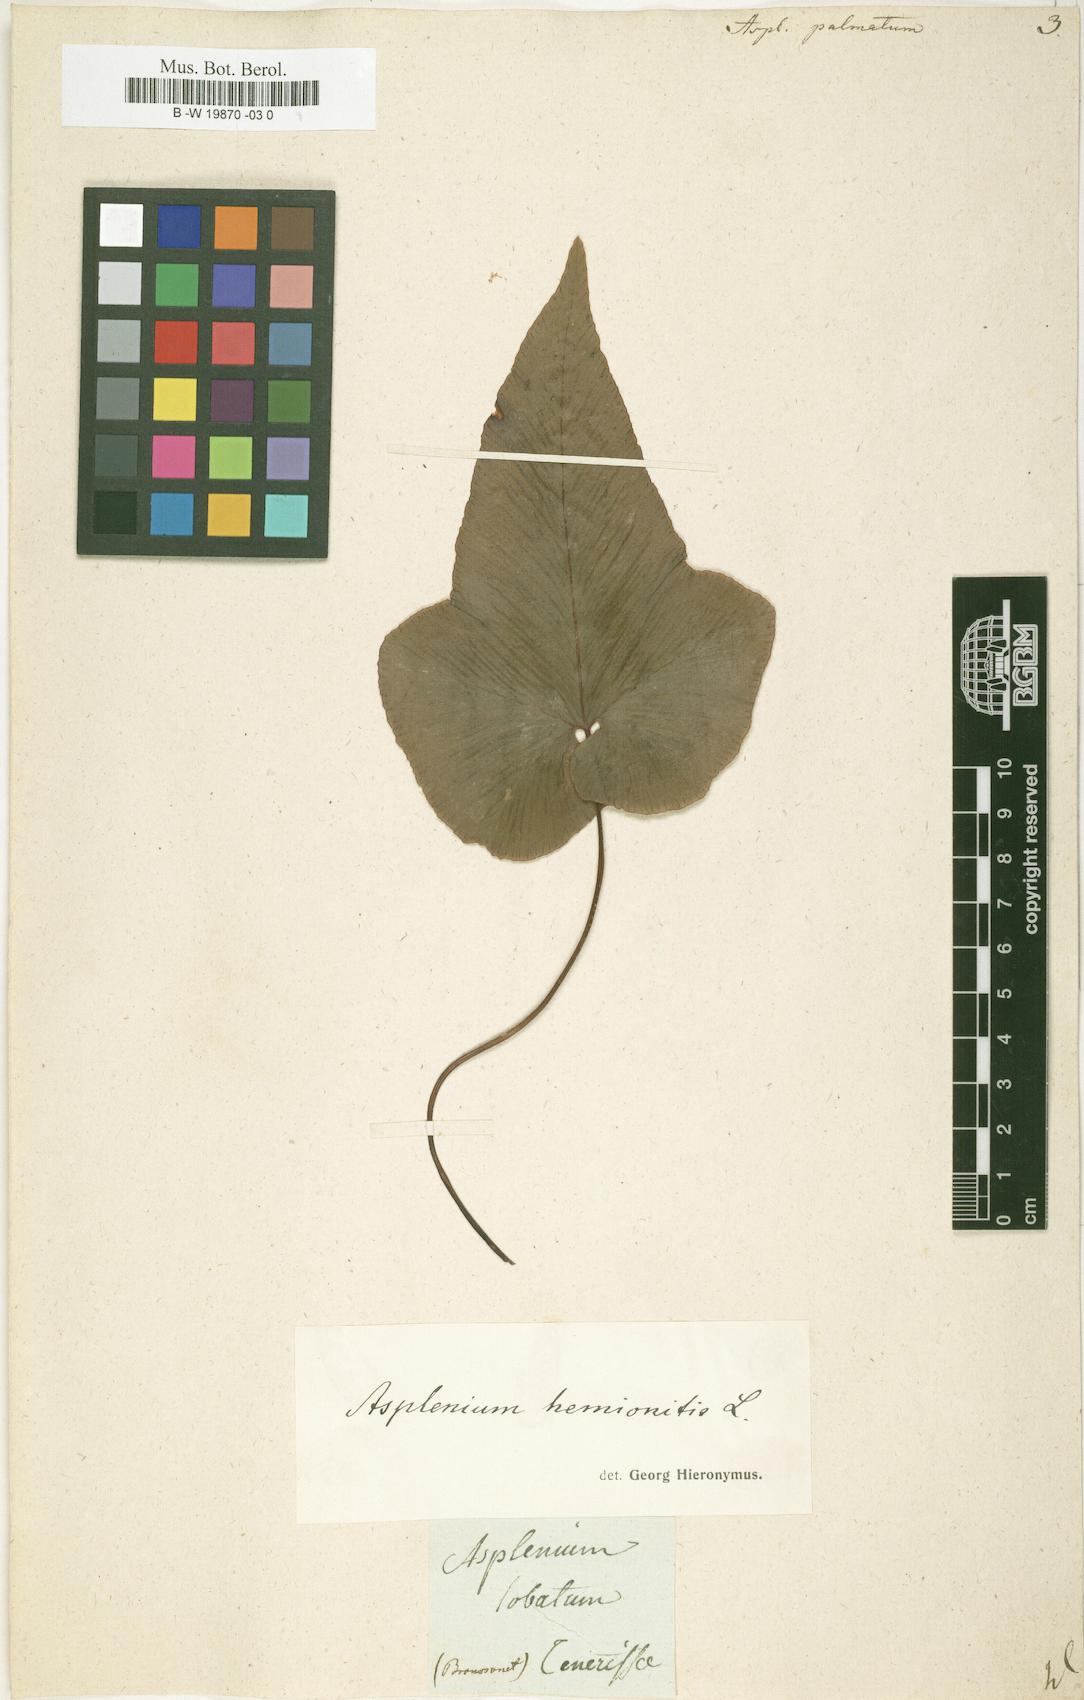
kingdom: Plantae
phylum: Tracheophyta
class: Polypodiopsida
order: Polypodiales
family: Aspleniaceae
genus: Asplenium
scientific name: Asplenium hemionitis
